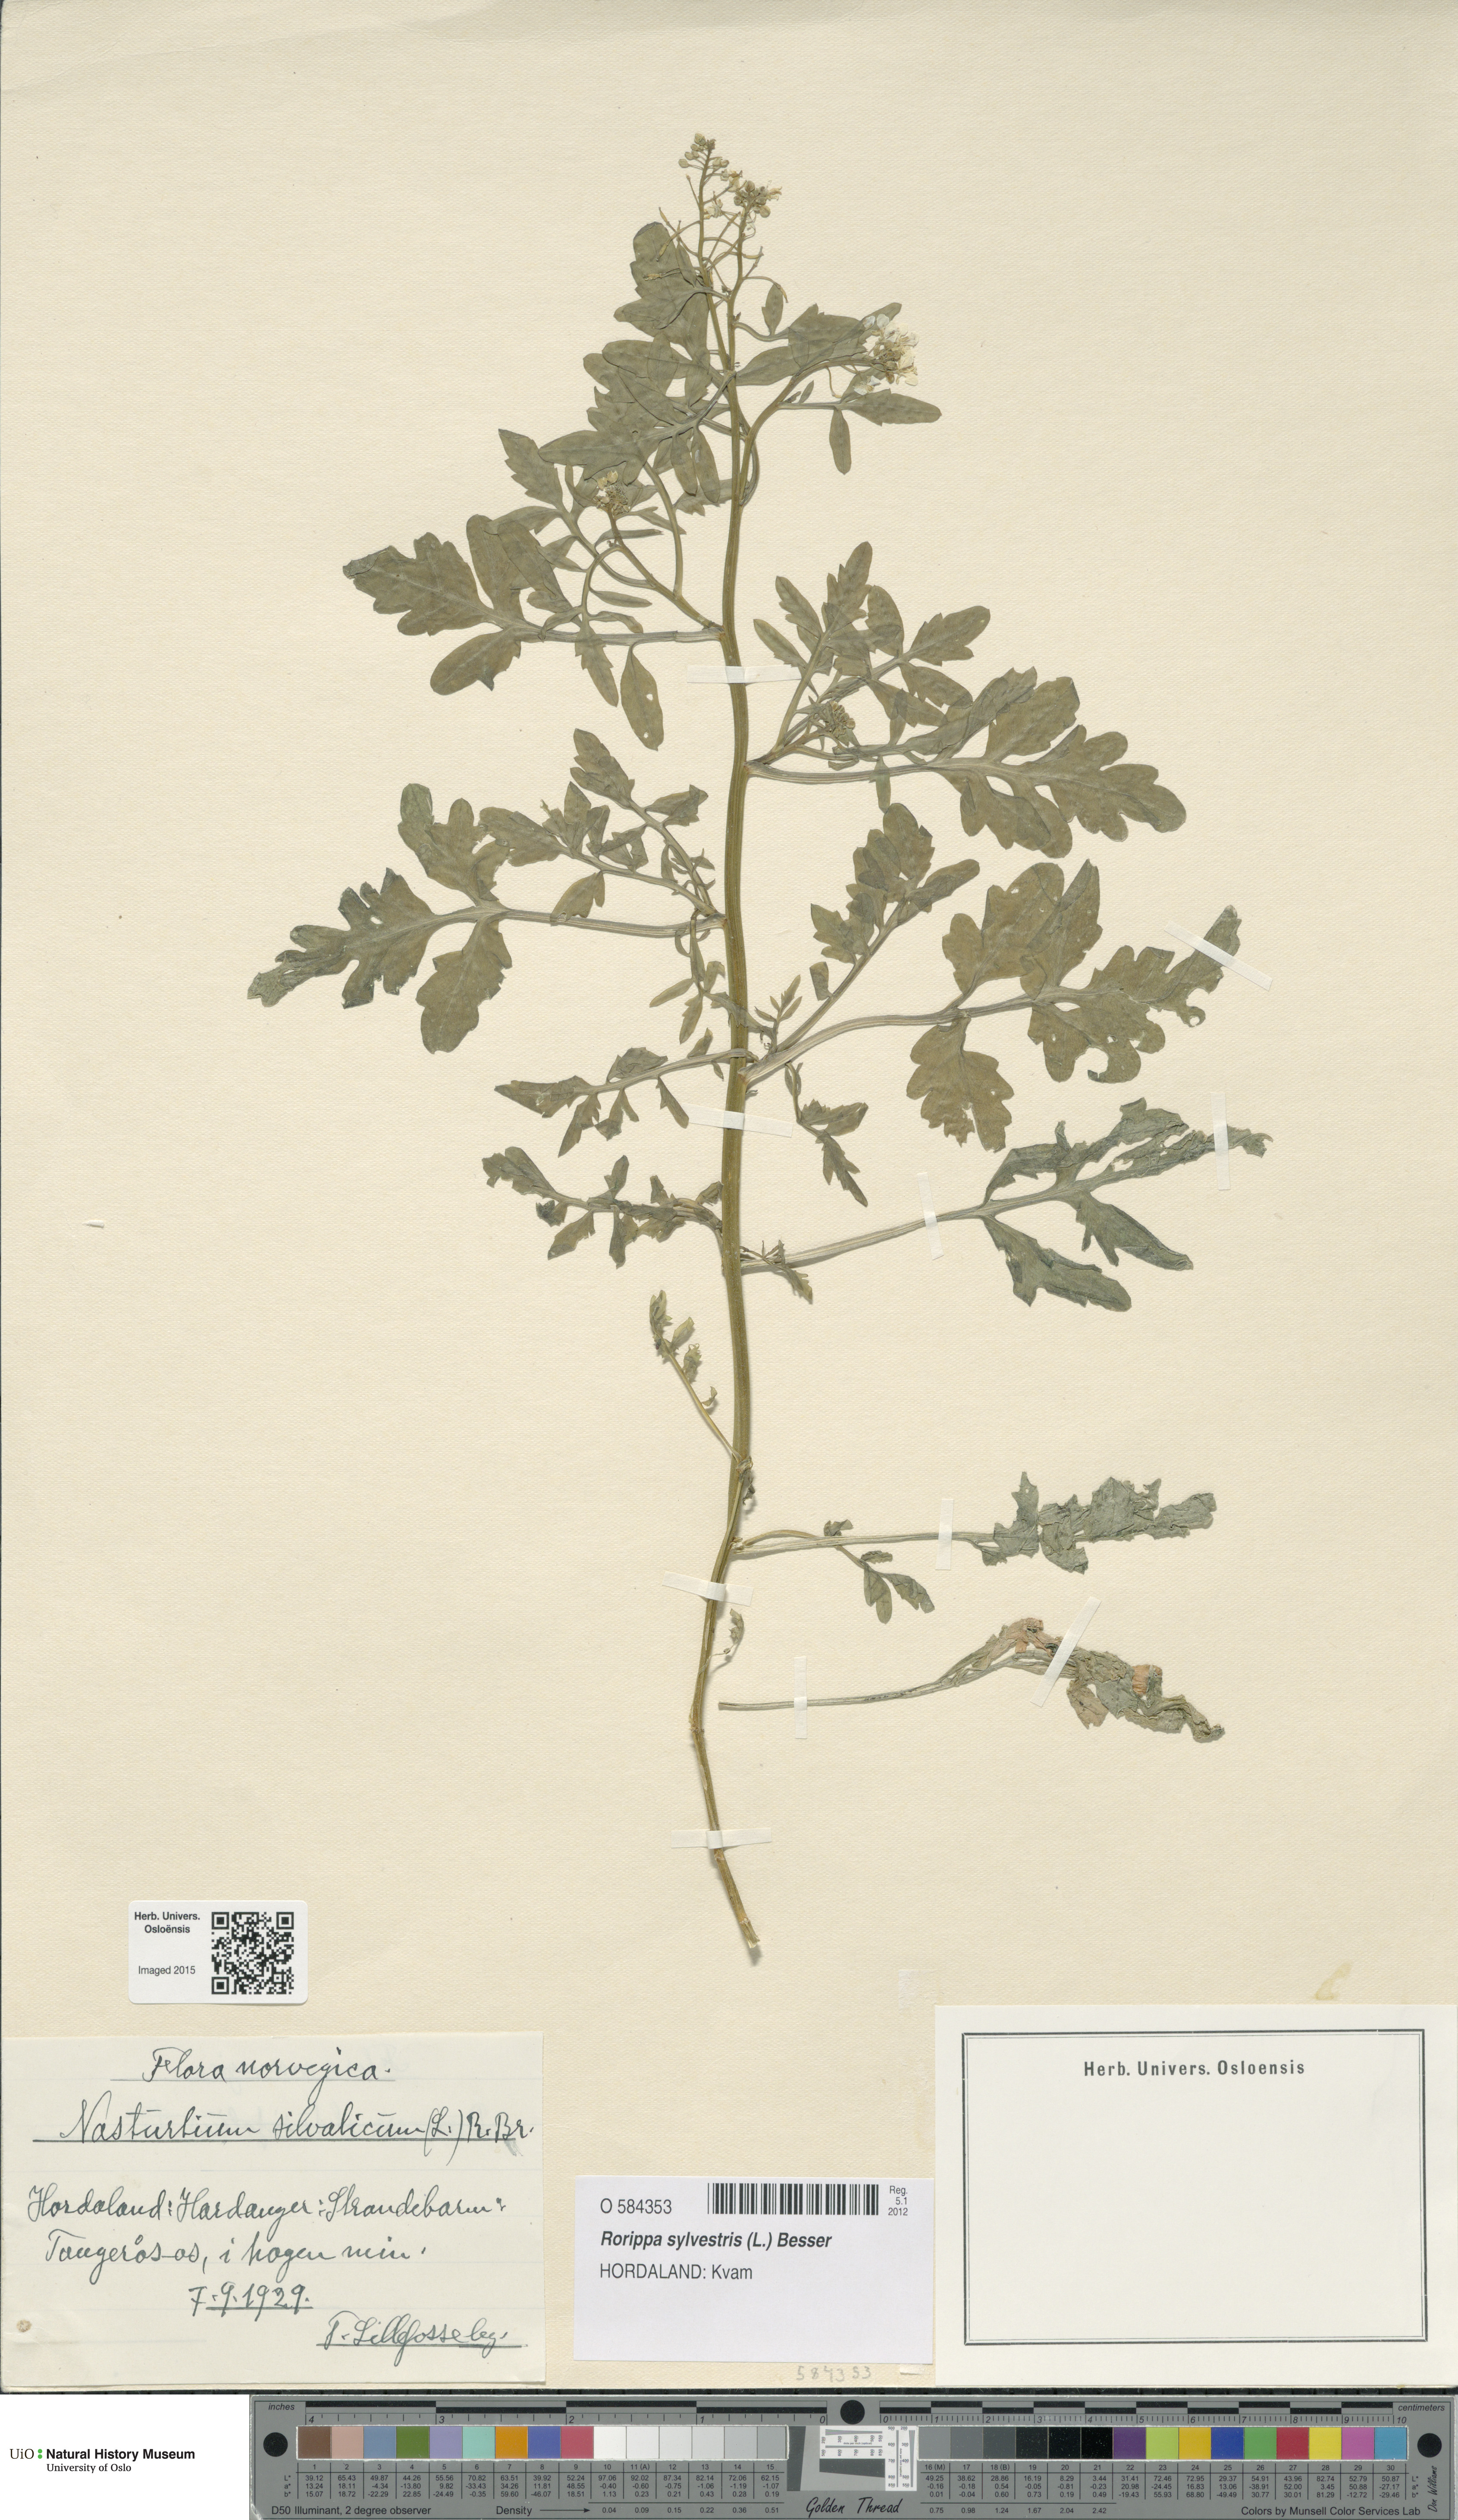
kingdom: Plantae
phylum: Tracheophyta
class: Magnoliopsida
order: Brassicales
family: Brassicaceae
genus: Rorippa
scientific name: Rorippa sylvestris
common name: Creeping yellowcress
